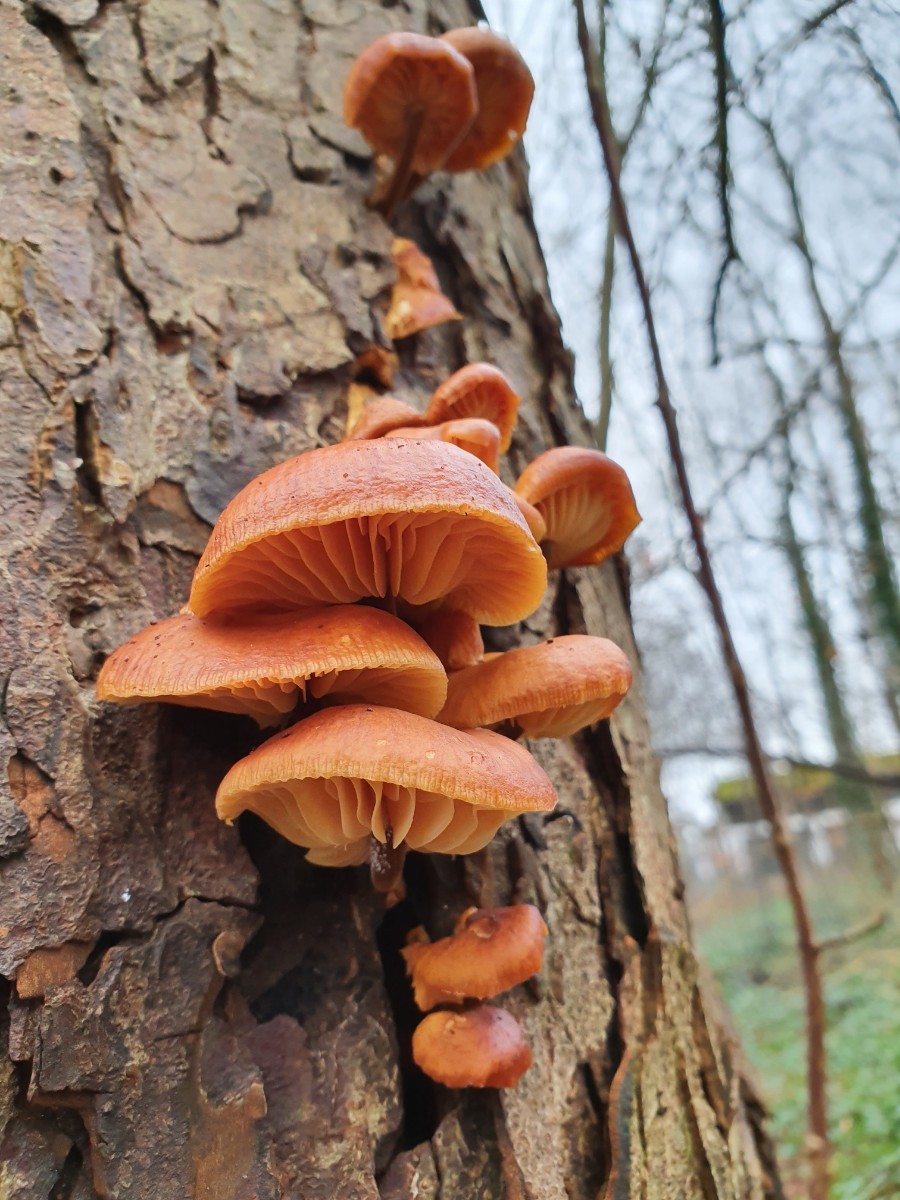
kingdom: Fungi
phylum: Basidiomycota
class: Agaricomycetes
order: Agaricales
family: Physalacriaceae
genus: Flammulina
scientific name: Flammulina velutipes
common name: gul fløjlsfod
